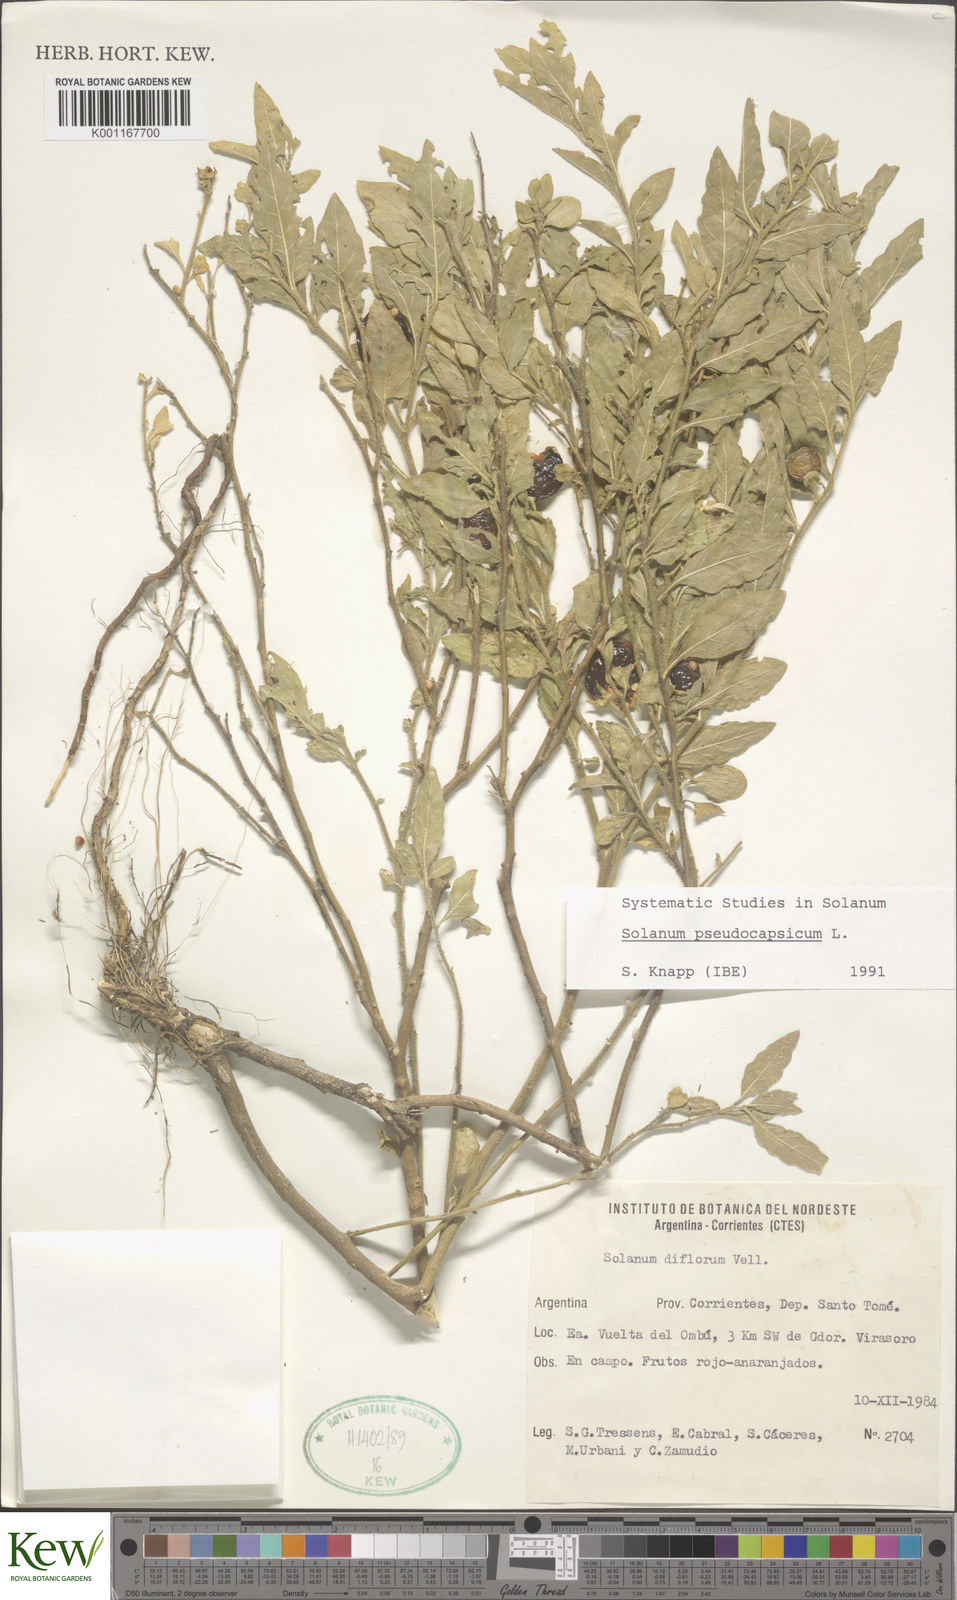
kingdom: Plantae
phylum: Tracheophyta
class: Magnoliopsida
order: Solanales
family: Solanaceae
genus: Solanum
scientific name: Solanum pseudocapsicum
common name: Jerusalem cherry
